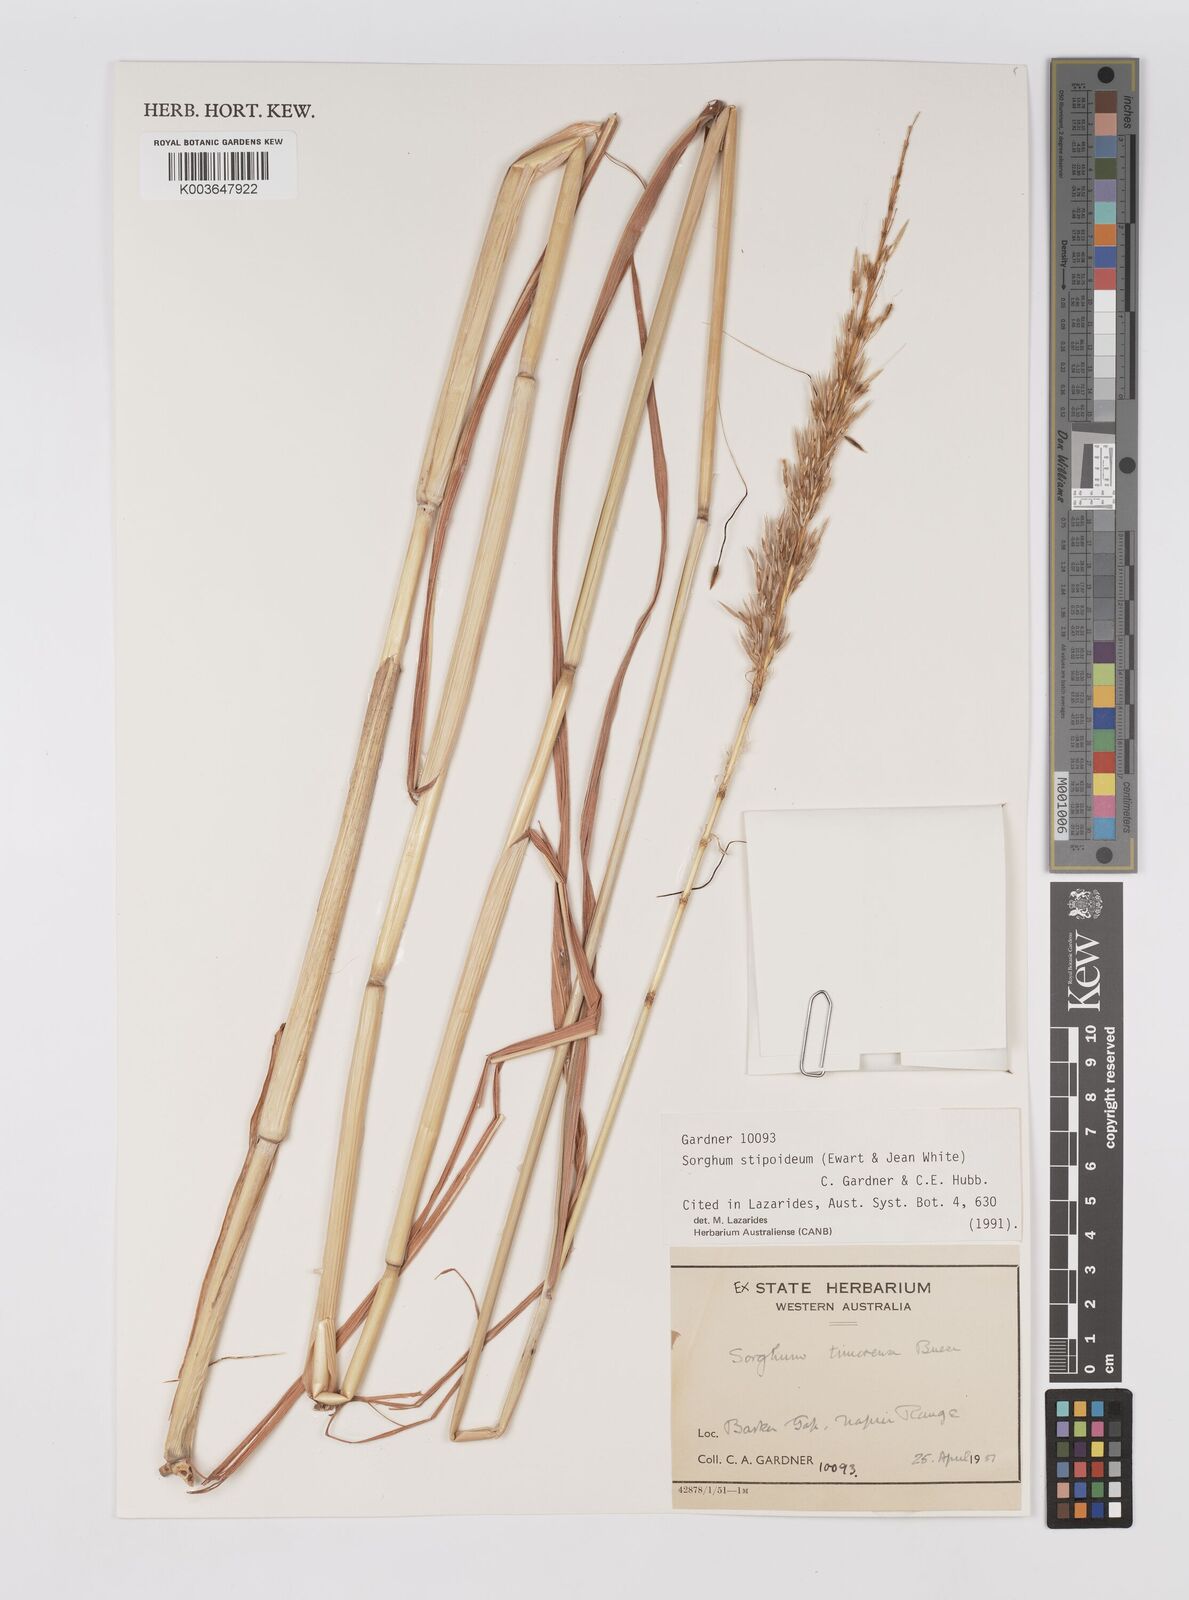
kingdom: Plantae
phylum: Tracheophyta
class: Liliopsida
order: Poales
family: Poaceae
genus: Sarga
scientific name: Sarga timorensis
